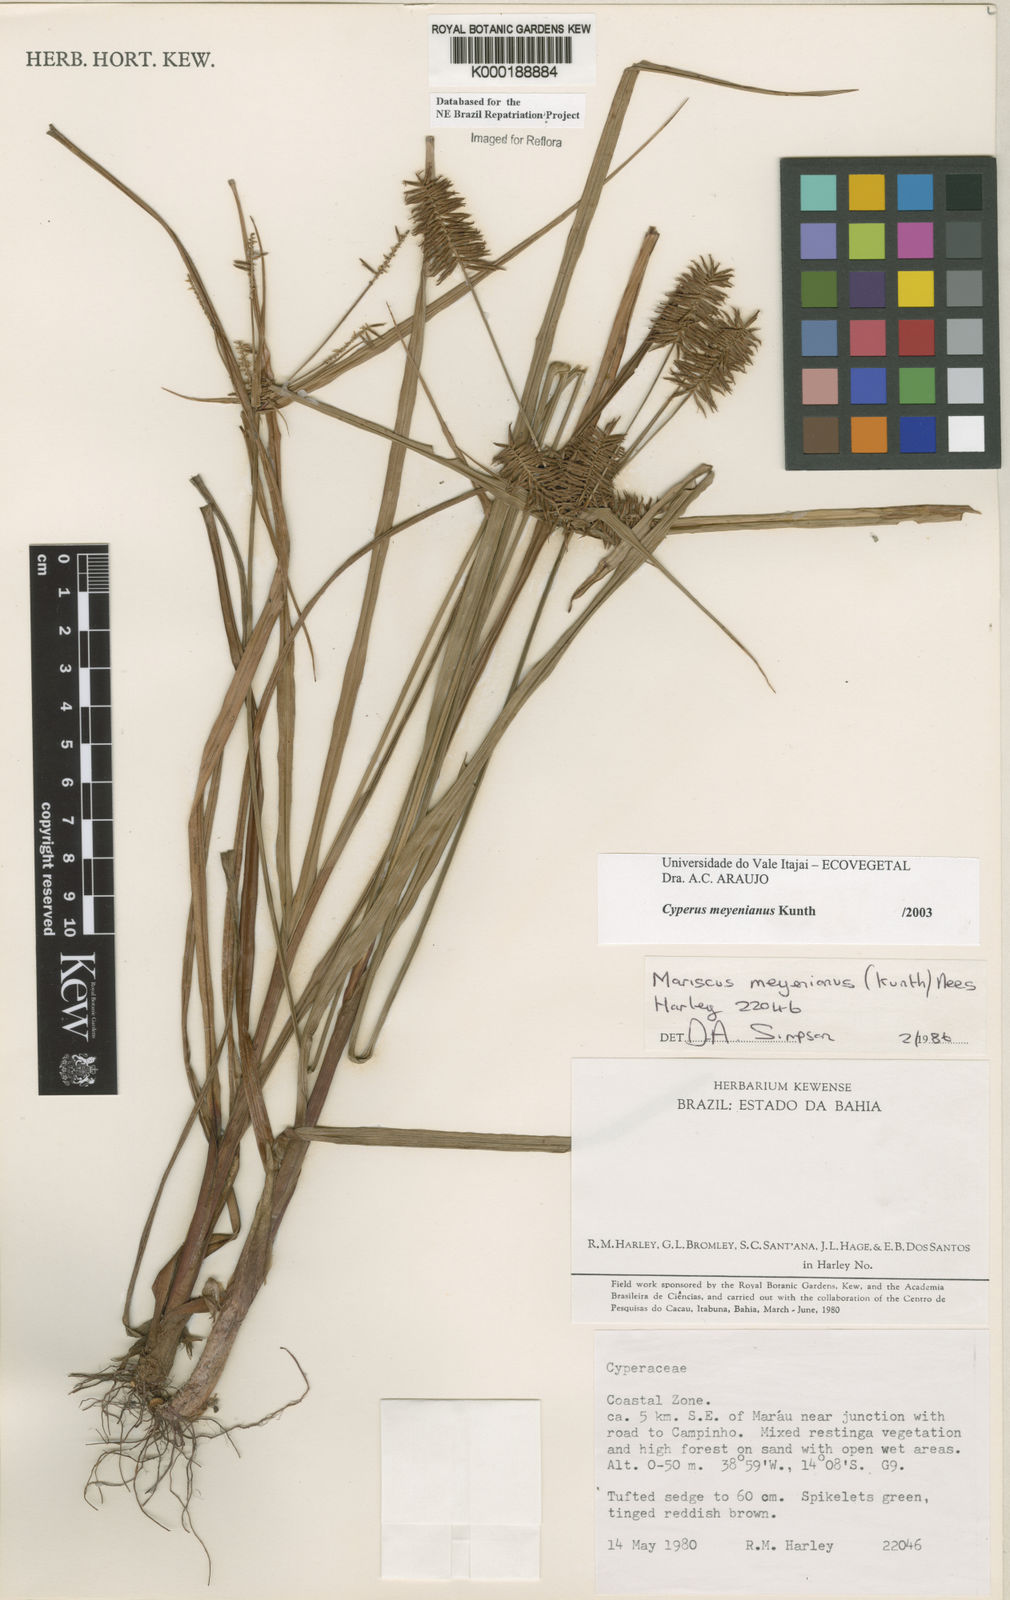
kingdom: Plantae
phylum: Tracheophyta
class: Liliopsida
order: Poales
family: Cyperaceae
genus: Cyperus
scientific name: Cyperus meyerianus
